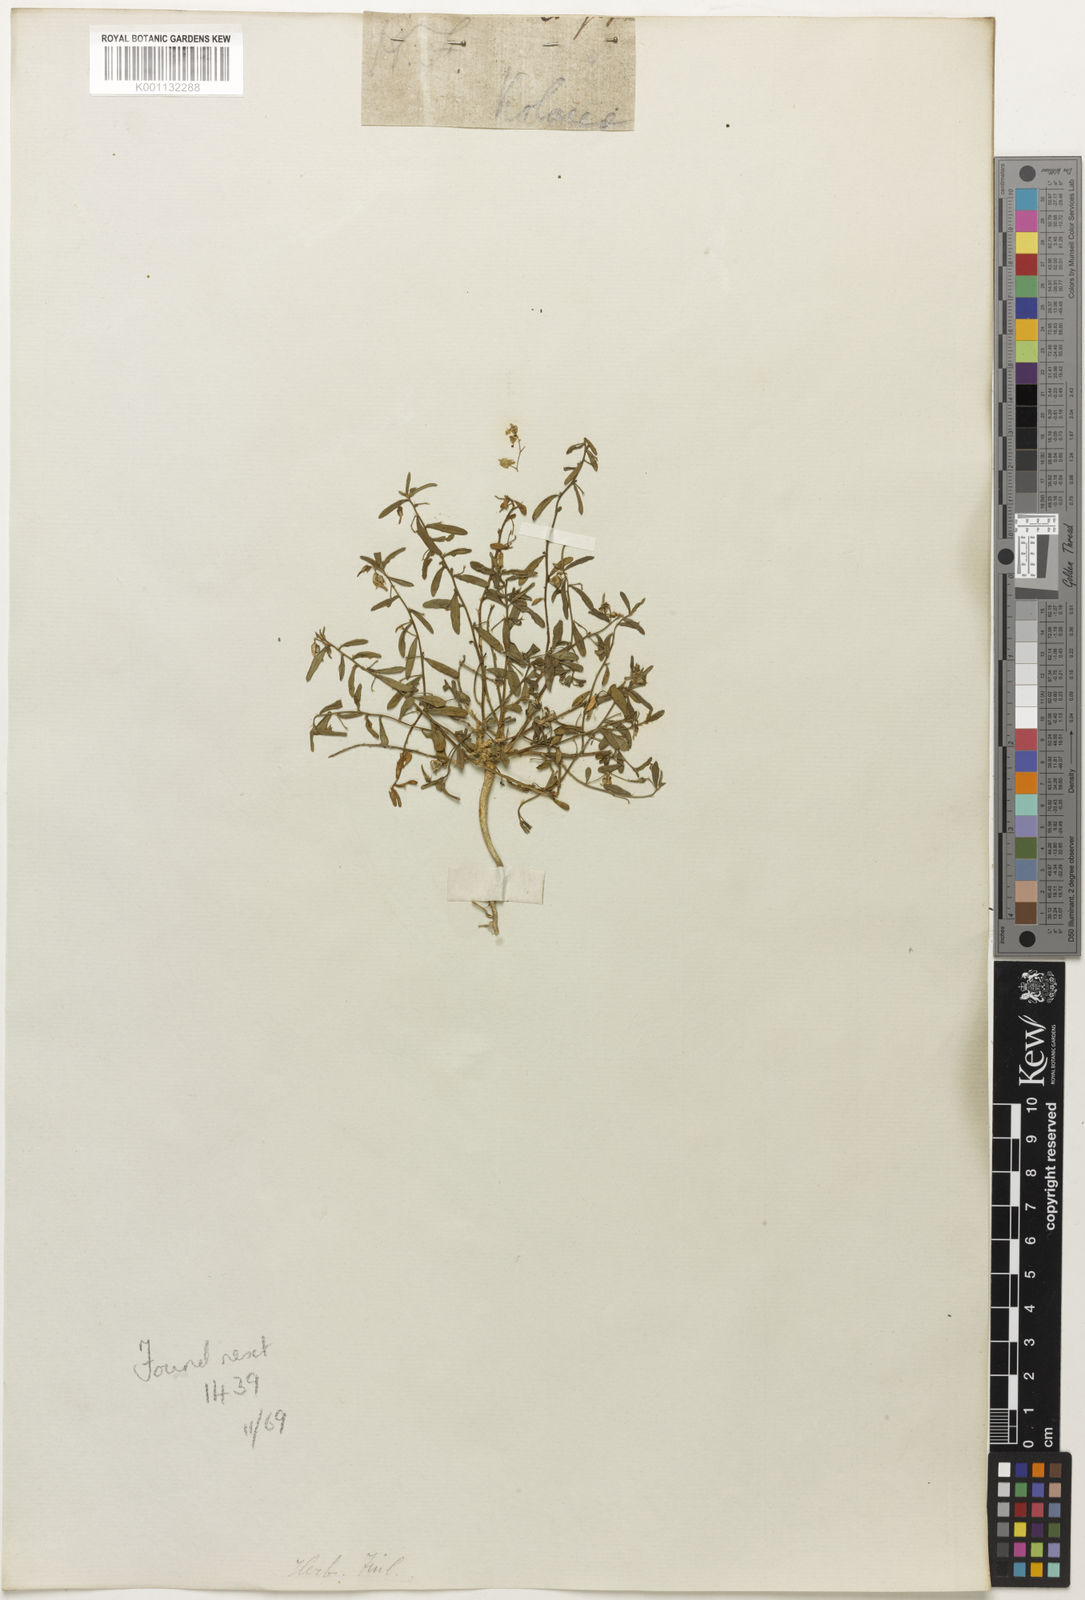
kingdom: Plantae
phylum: Tracheophyta
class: Magnoliopsida
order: Malpighiales
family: Violaceae
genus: Hybanthus
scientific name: Hybanthus
